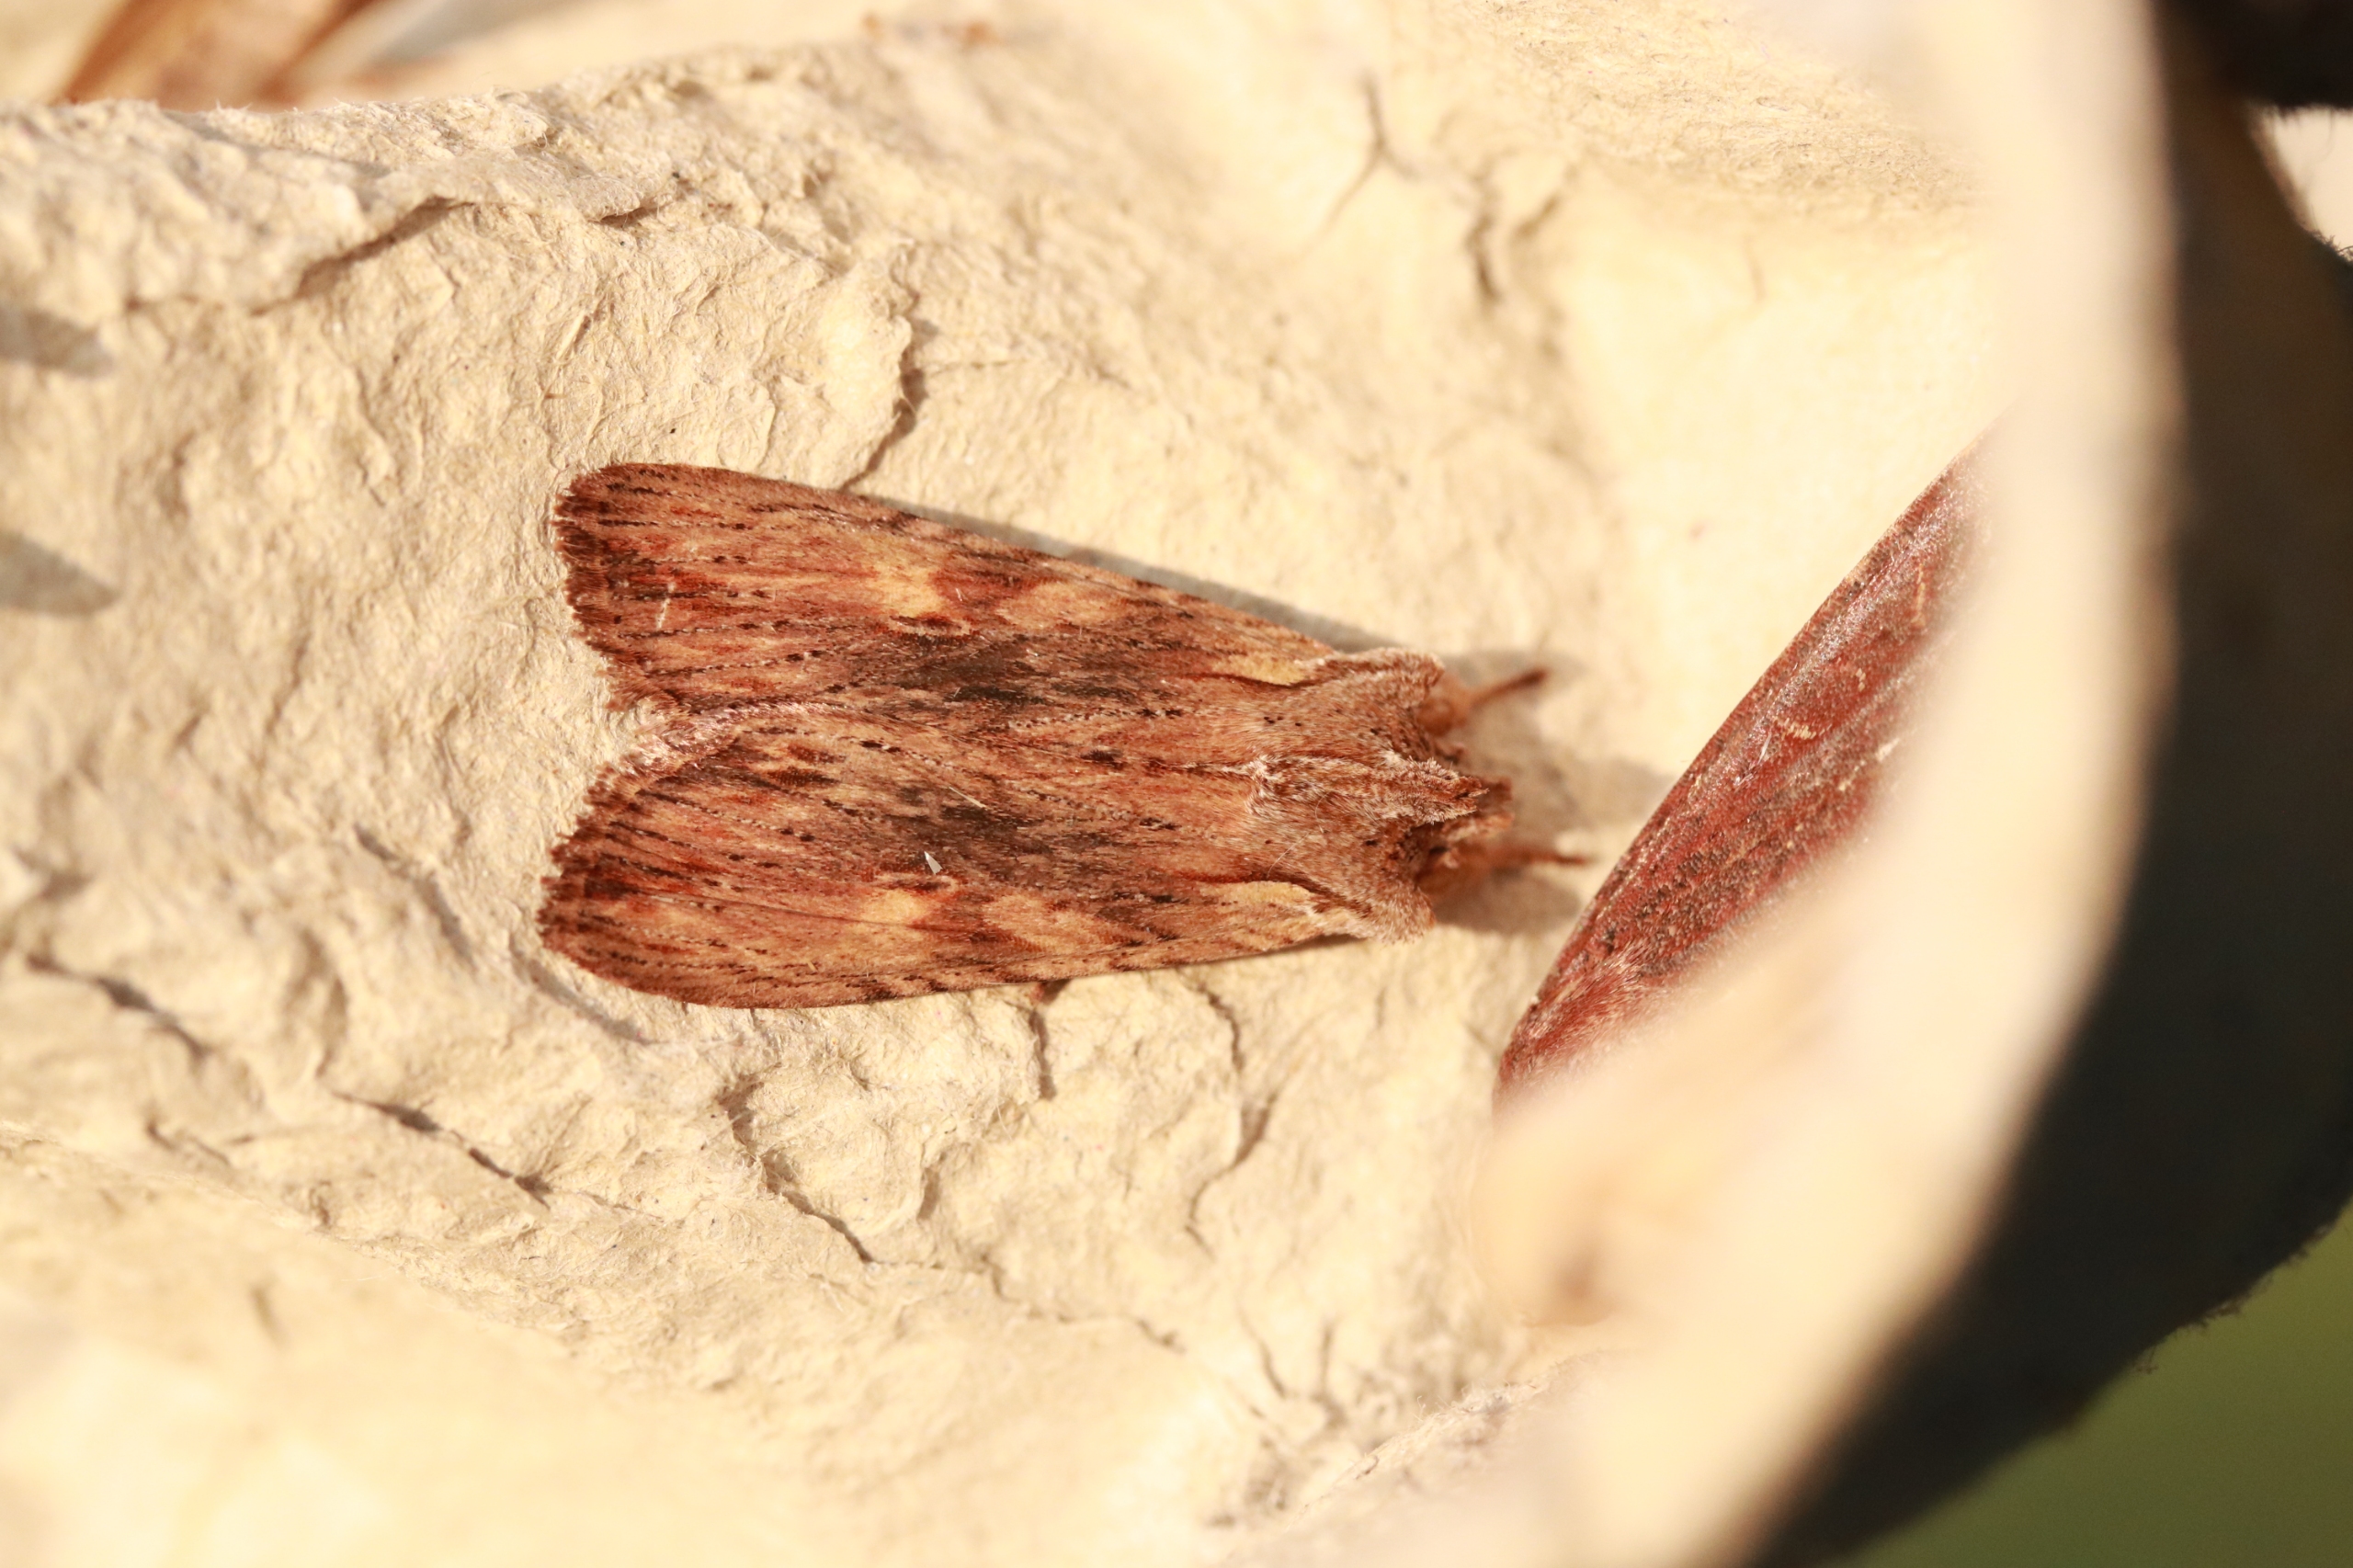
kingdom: Animalia
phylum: Arthropoda
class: Insecta
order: Lepidoptera
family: Noctuidae
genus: Lithophane
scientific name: Lithophane socia
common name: Alliance-stenugle
